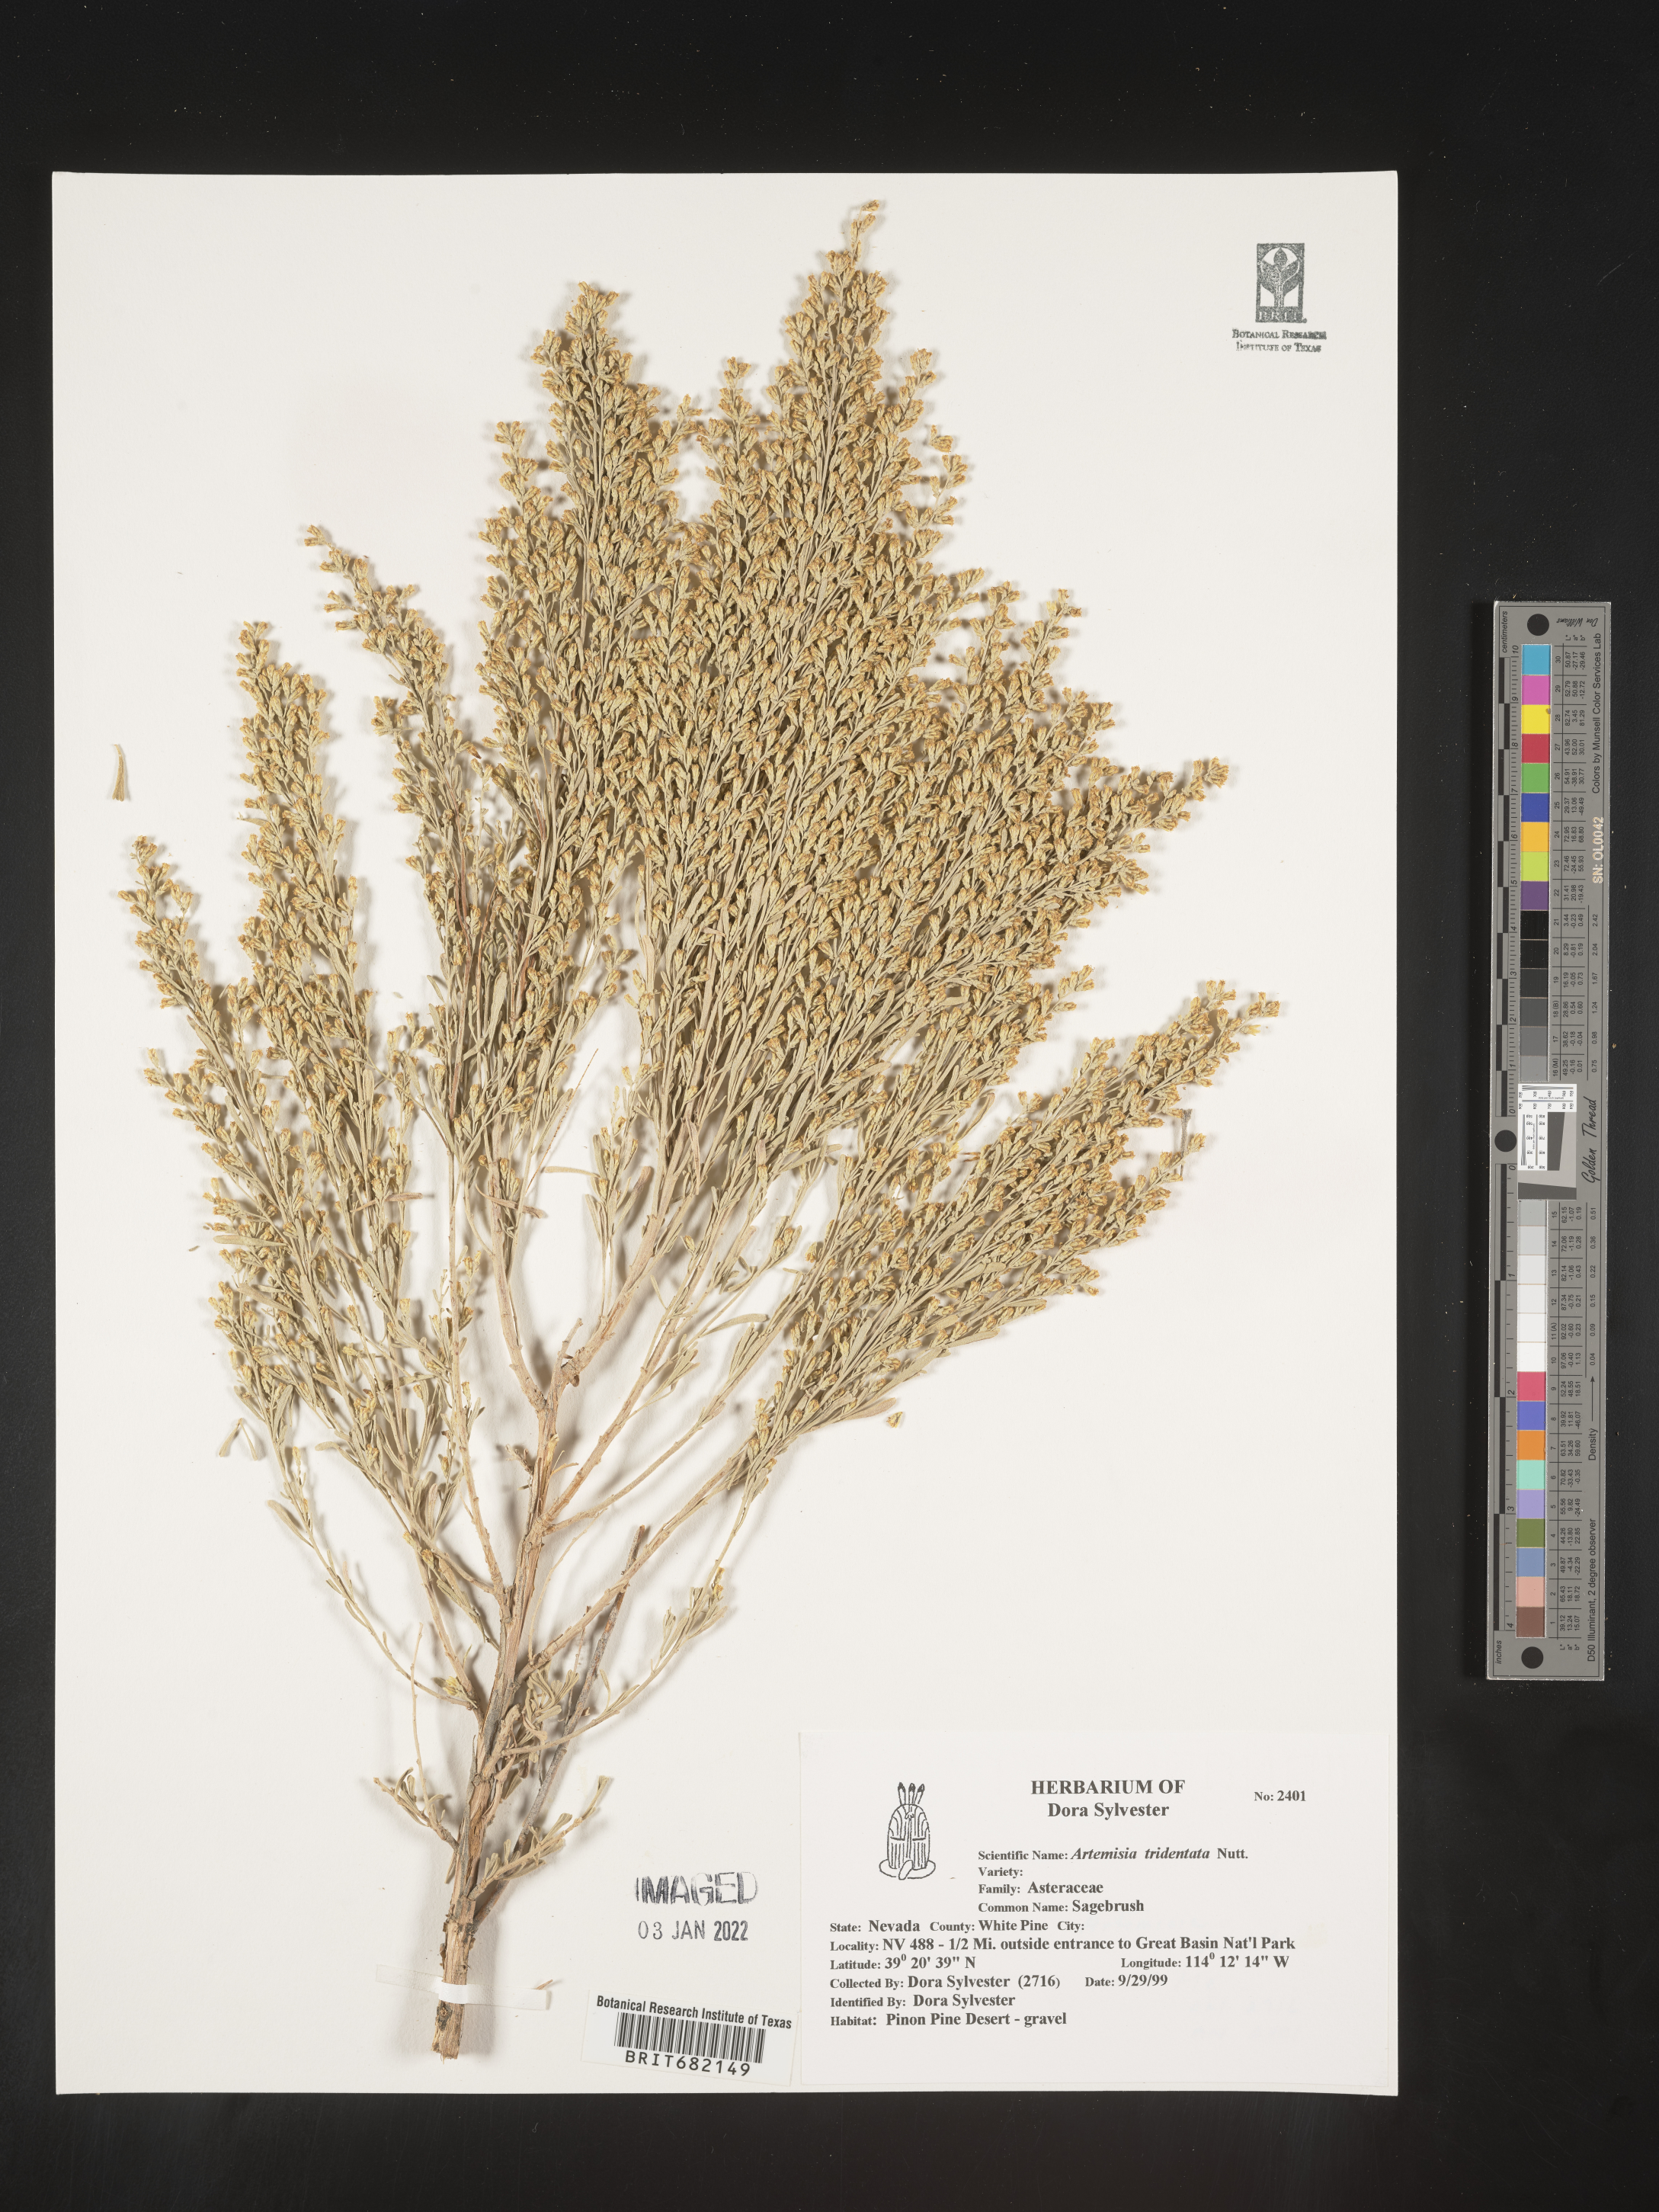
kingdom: Plantae
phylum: Tracheophyta
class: Magnoliopsida
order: Asterales
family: Asteraceae
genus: Artemisia
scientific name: Artemisia tridentata
